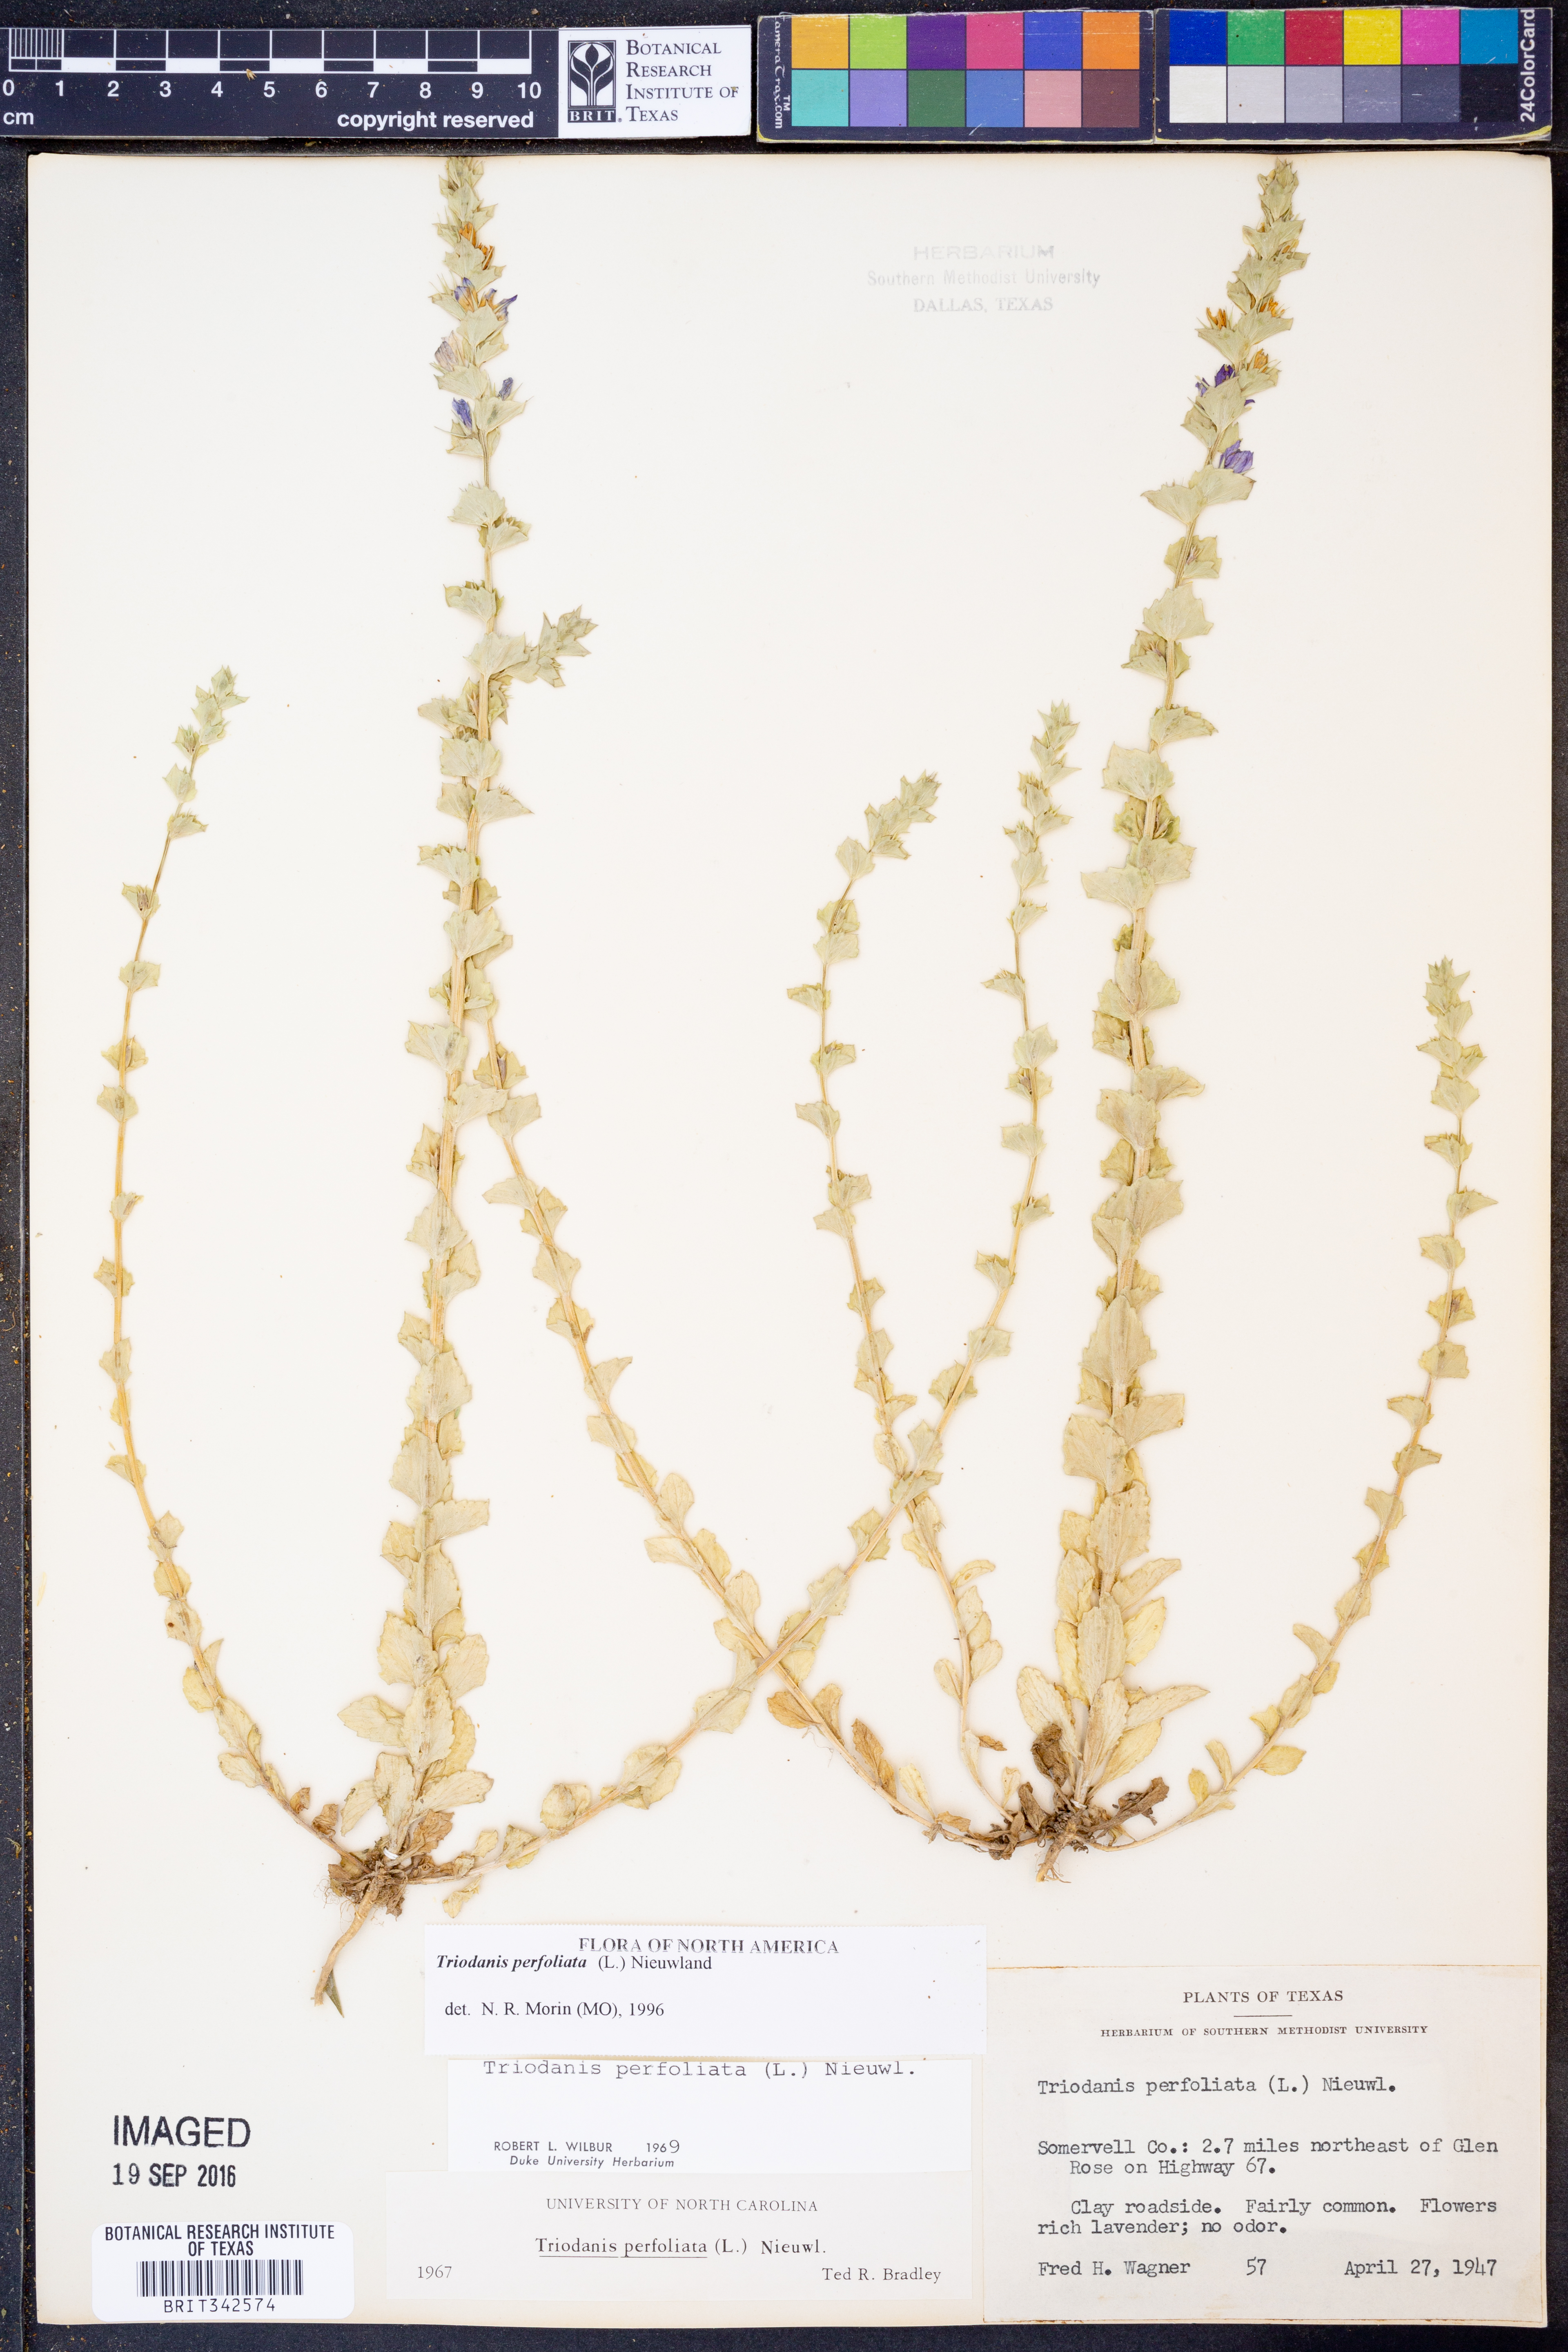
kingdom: Plantae
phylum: Tracheophyta
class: Magnoliopsida
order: Asterales
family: Campanulaceae
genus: Triodanis
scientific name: Triodanis perfoliata
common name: Clasping venus' looking-glass
